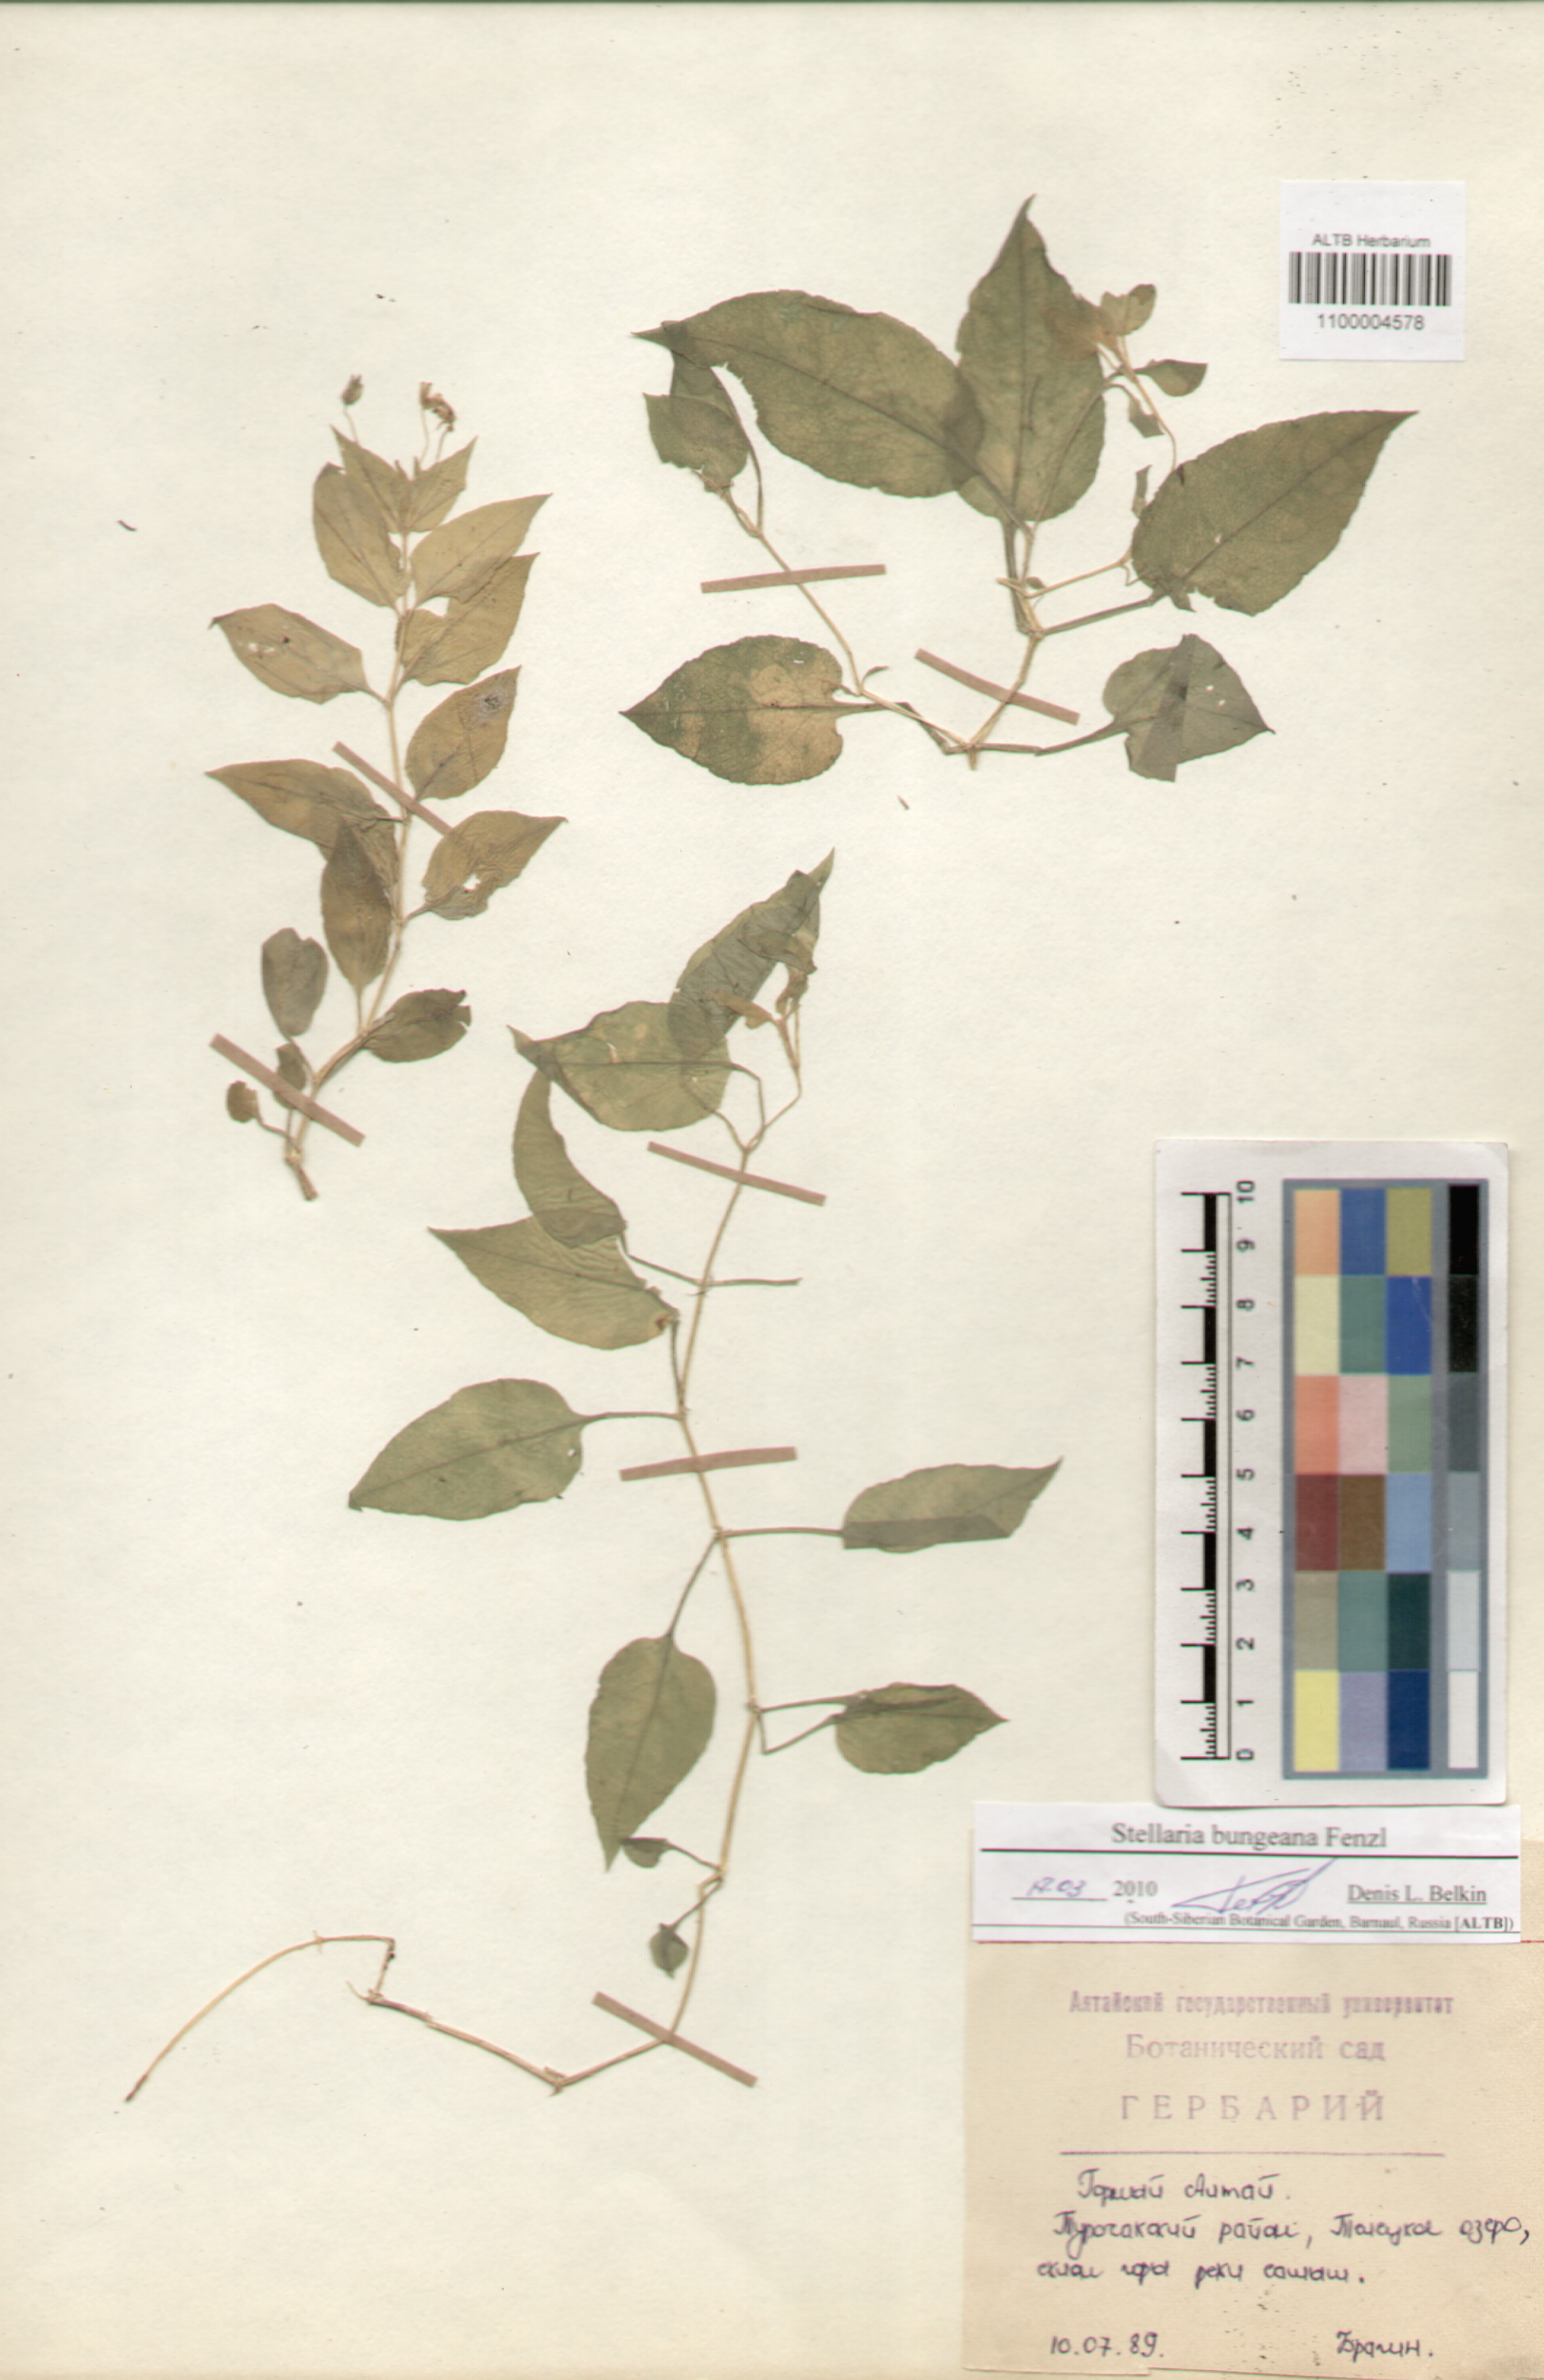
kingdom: Plantae
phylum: Tracheophyta
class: Magnoliopsida
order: Caryophyllales
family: Caryophyllaceae
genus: Stellaria
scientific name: Stellaria bungeana
